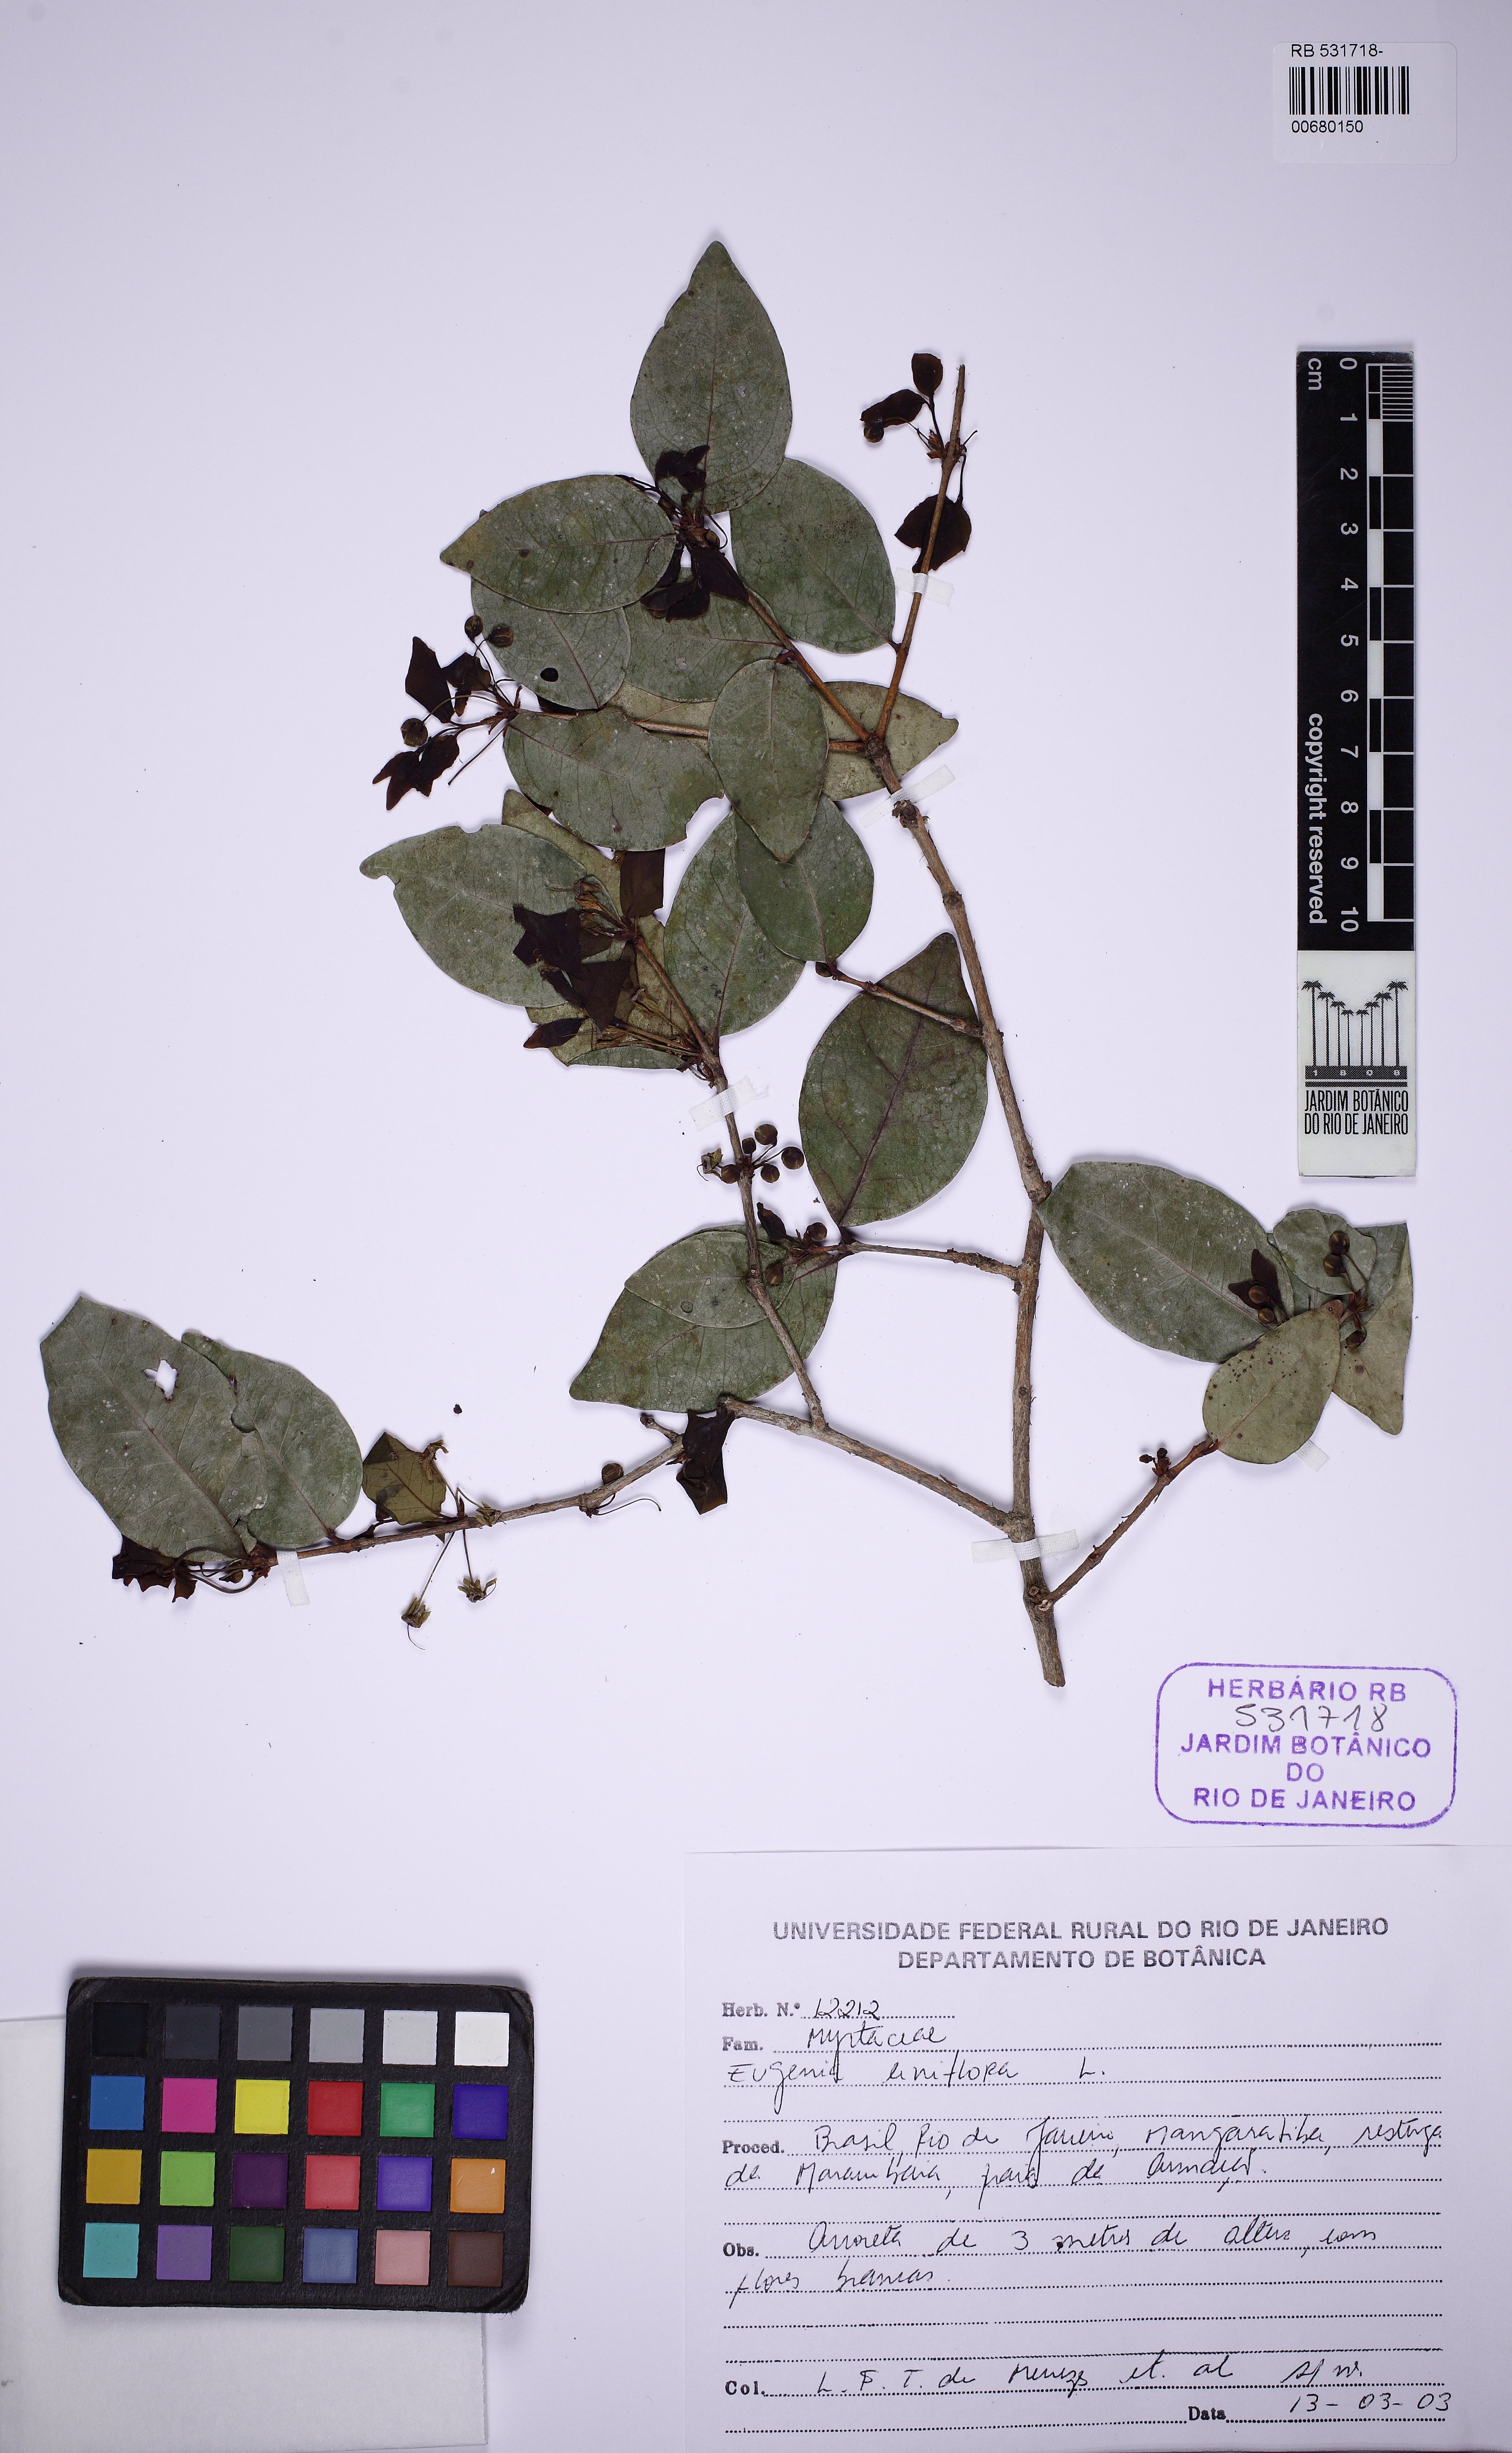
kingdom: Plantae
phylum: Tracheophyta
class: Magnoliopsida
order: Myrtales
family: Myrtaceae
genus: Eugenia
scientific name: Eugenia uniflora
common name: Surinam cherry
